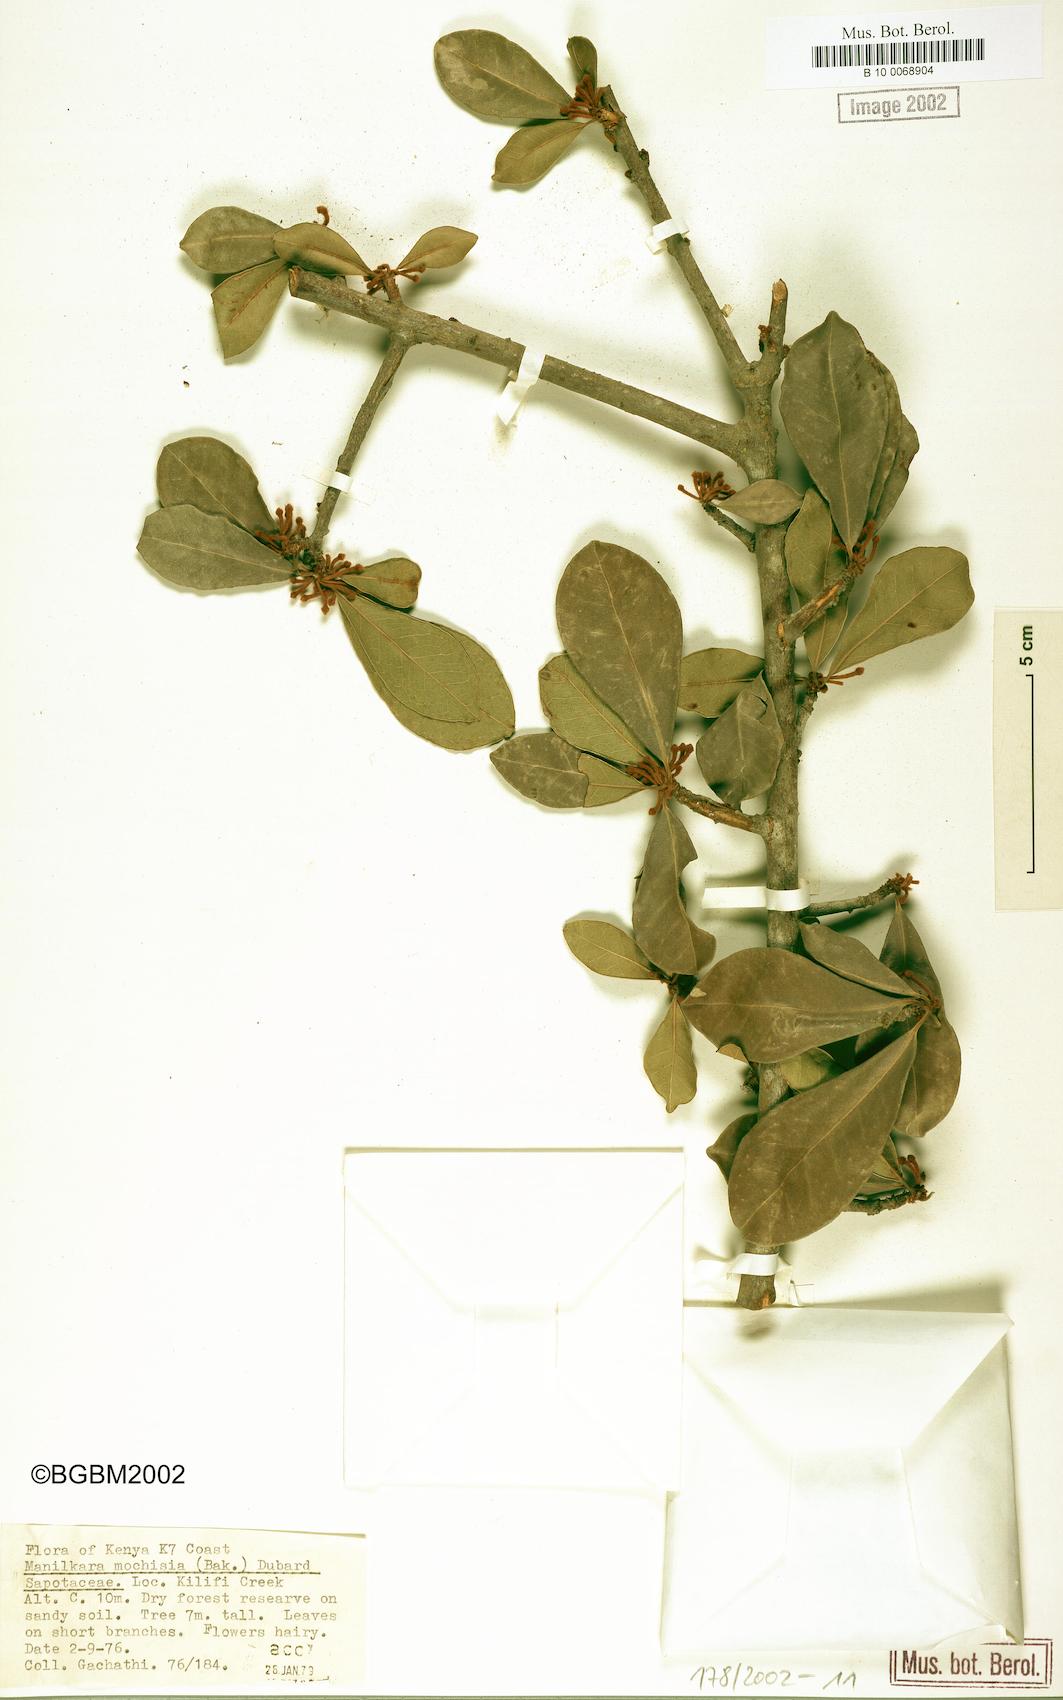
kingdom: Plantae
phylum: Tracheophyta
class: Magnoliopsida
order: Ericales
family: Sapotaceae
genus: Manilkara
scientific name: Manilkara mochisia
